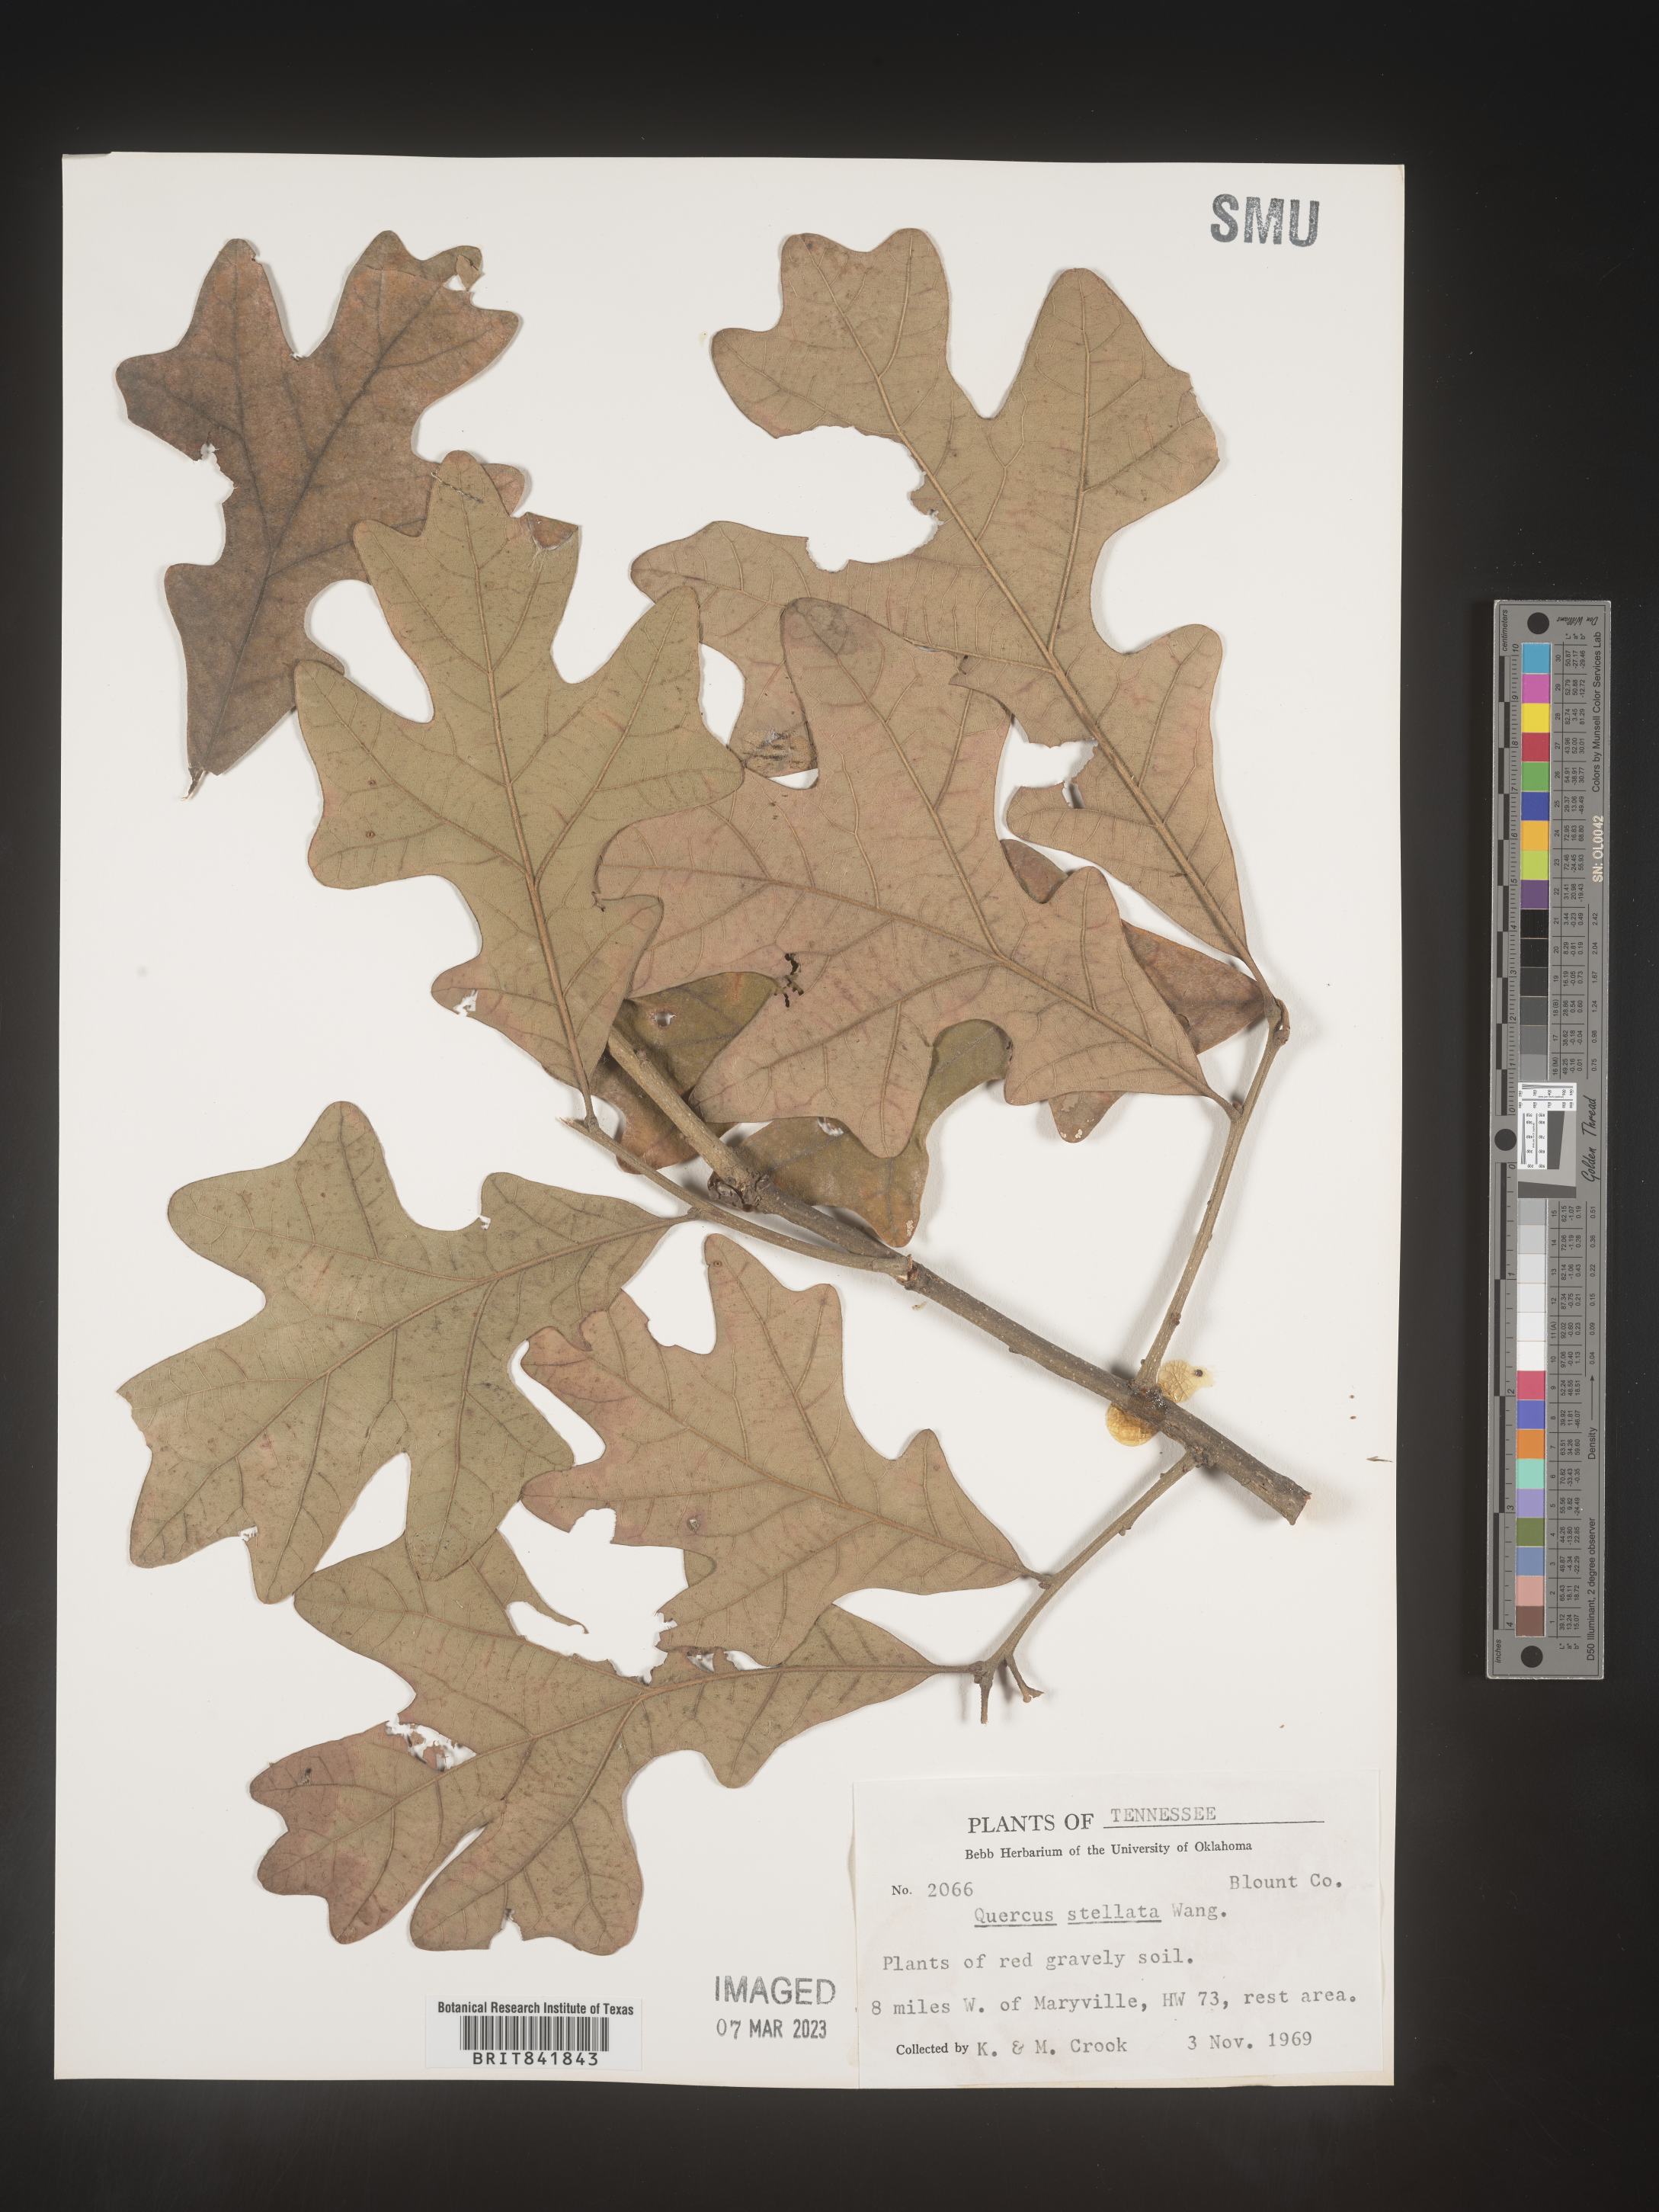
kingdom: Plantae
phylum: Tracheophyta
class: Magnoliopsida
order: Fagales
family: Fagaceae
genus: Quercus
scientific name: Quercus stellata
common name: Post oak
